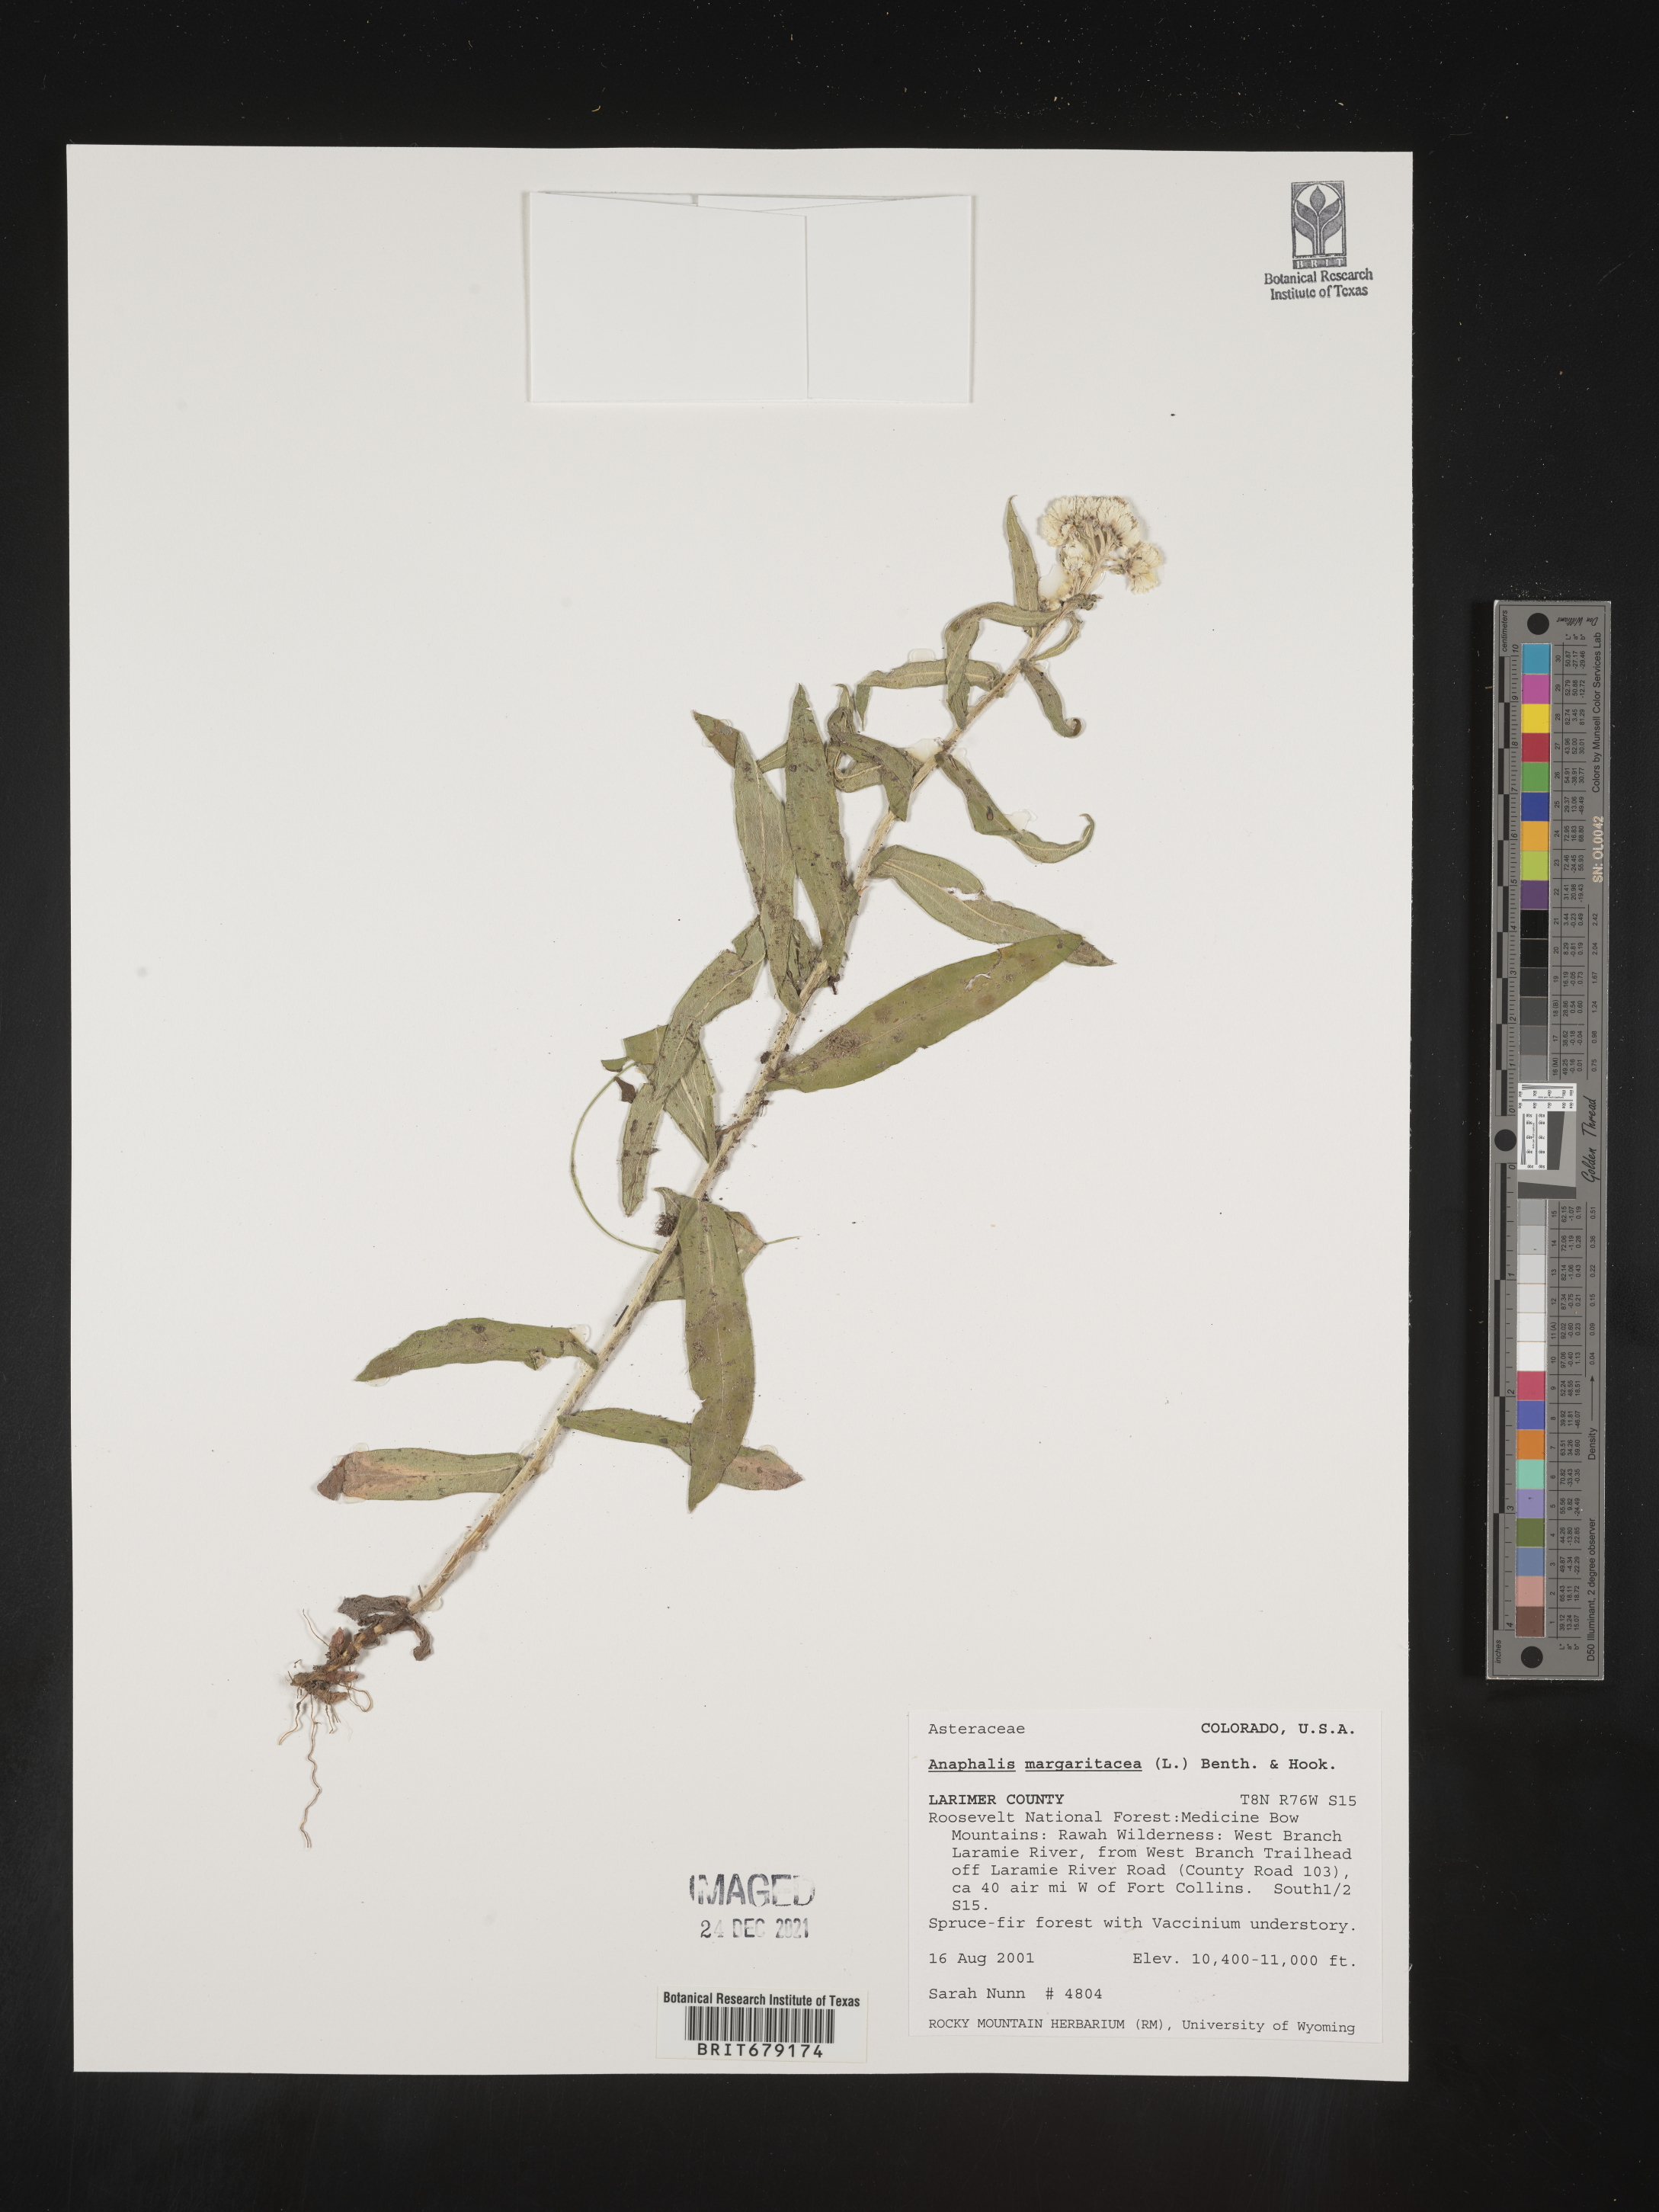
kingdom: Plantae
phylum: Tracheophyta
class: Magnoliopsida
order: Asterales
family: Asteraceae
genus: Anaphalis
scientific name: Anaphalis margaritacea
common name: Pearly everlasting
